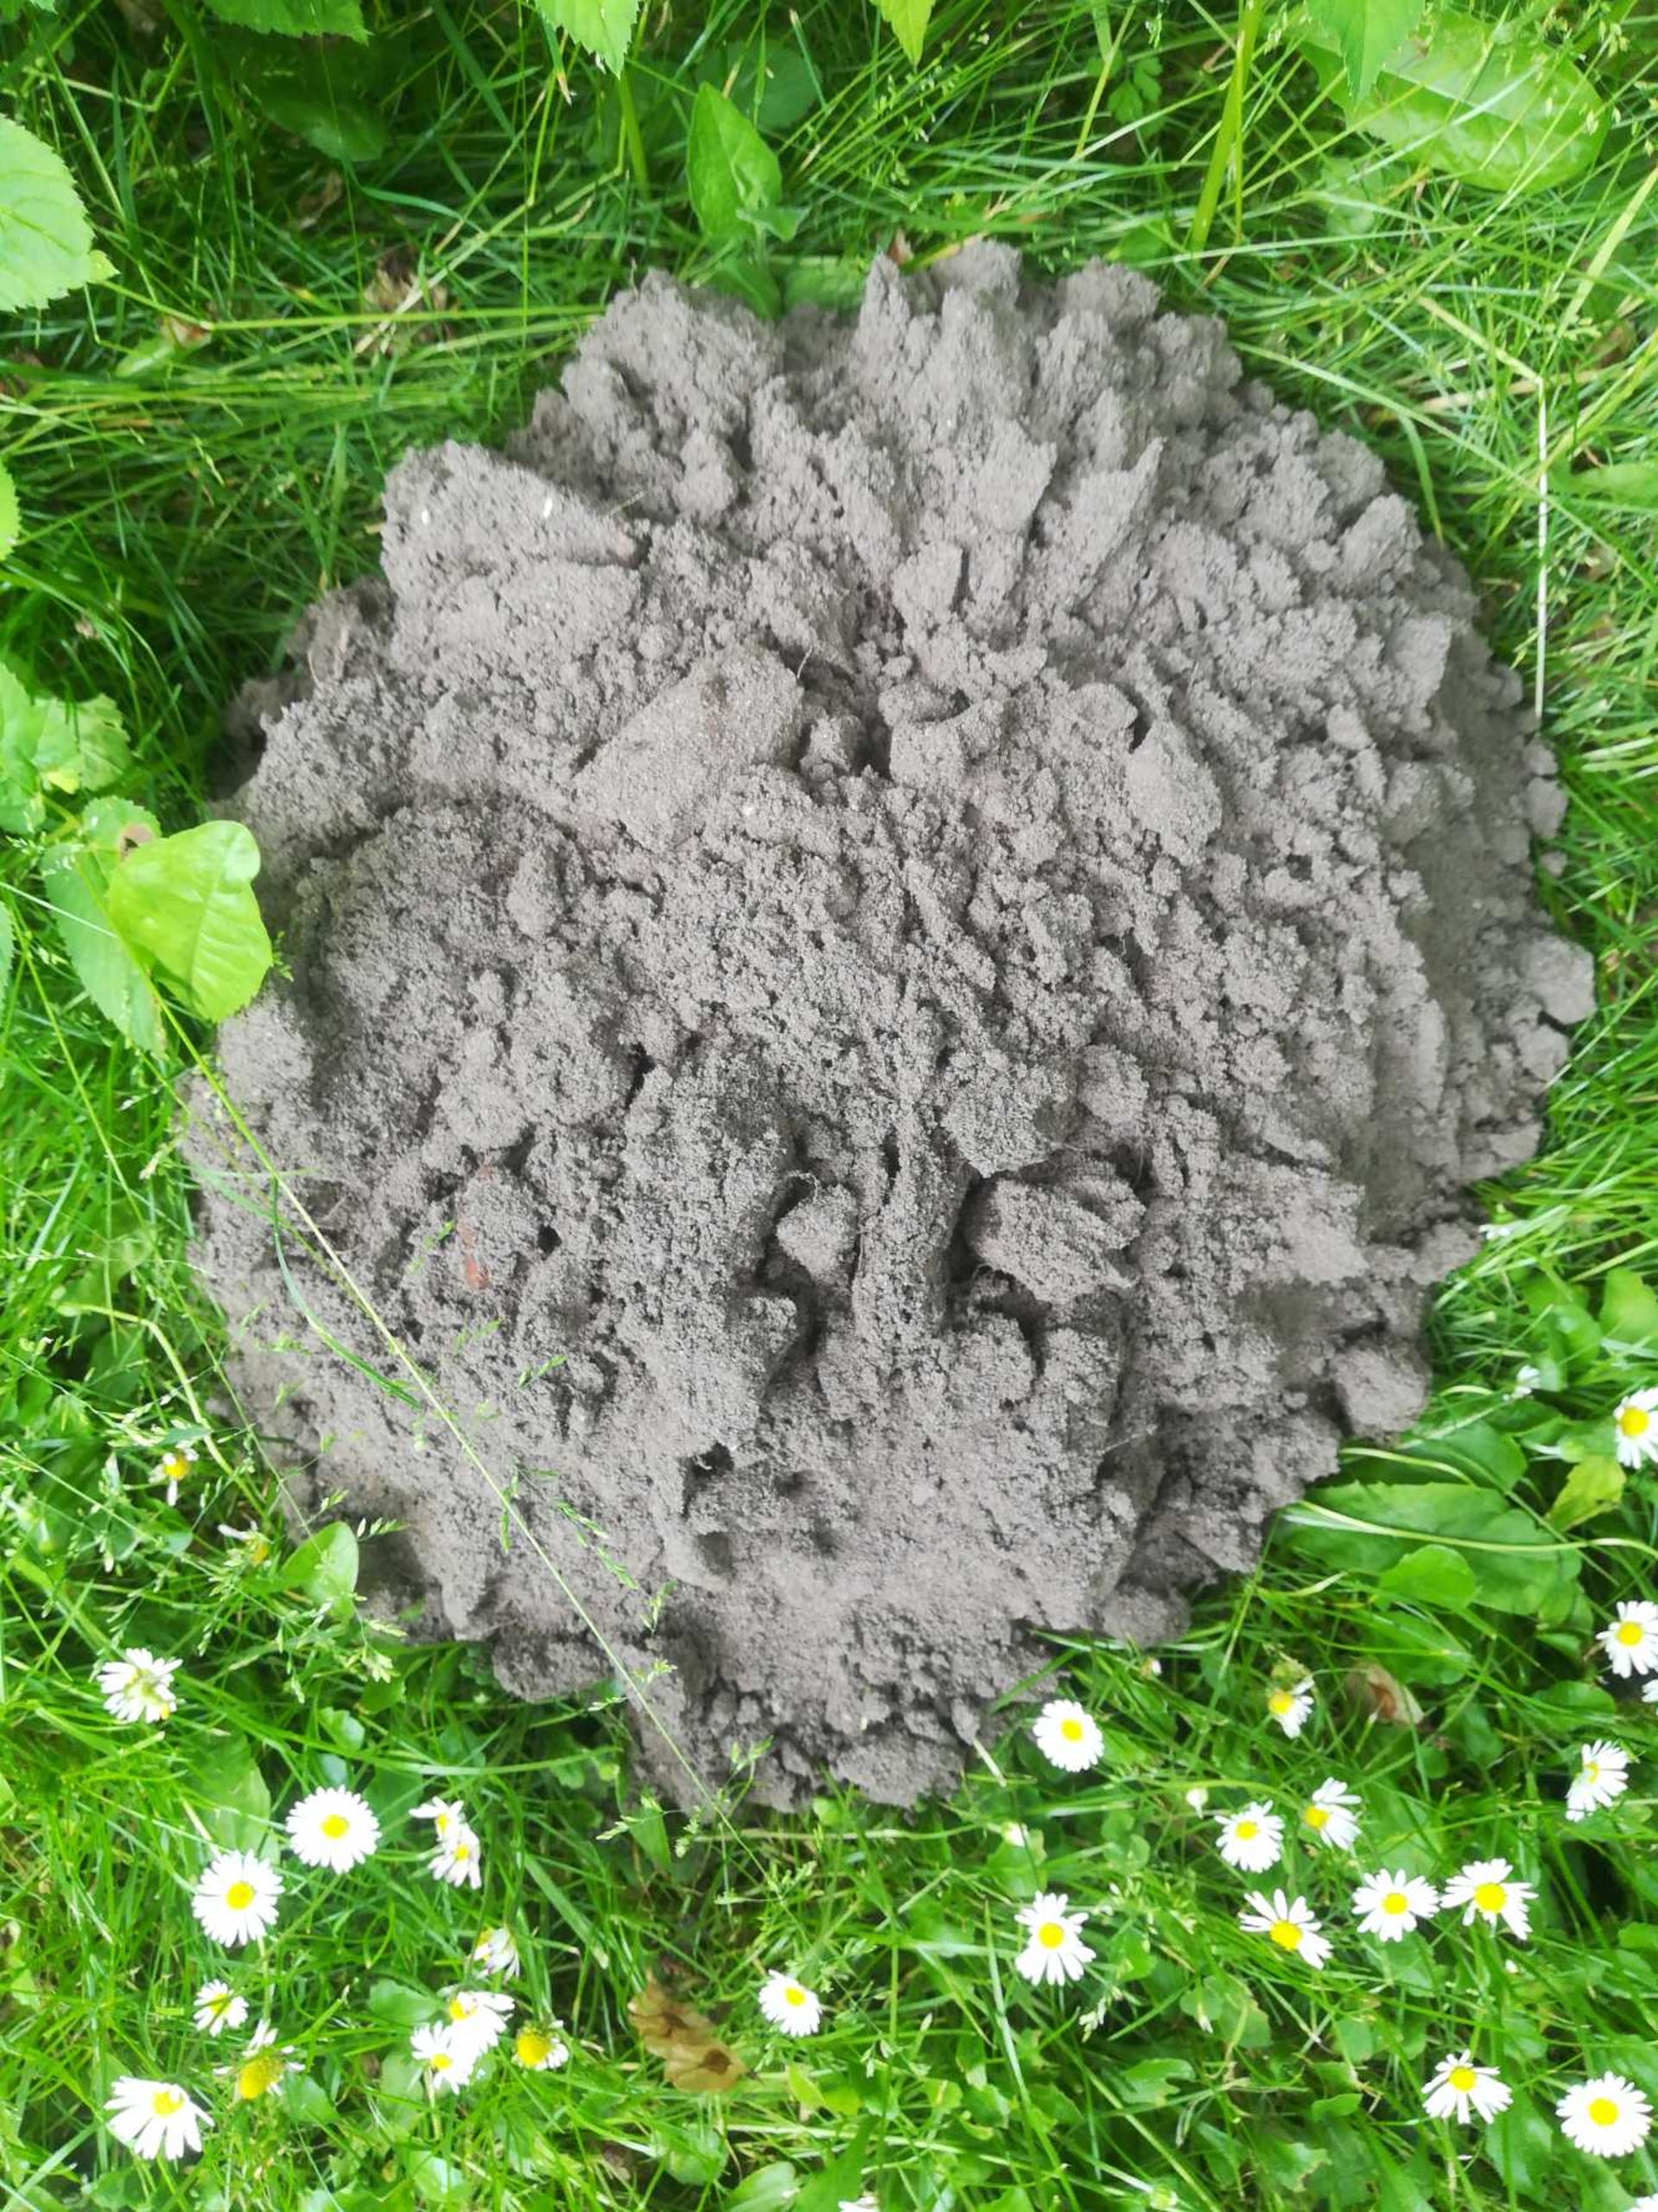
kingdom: Animalia
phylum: Chordata
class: Mammalia
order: Soricomorpha
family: Talpidae
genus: Talpa
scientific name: Talpa europaea
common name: Muldvarp
